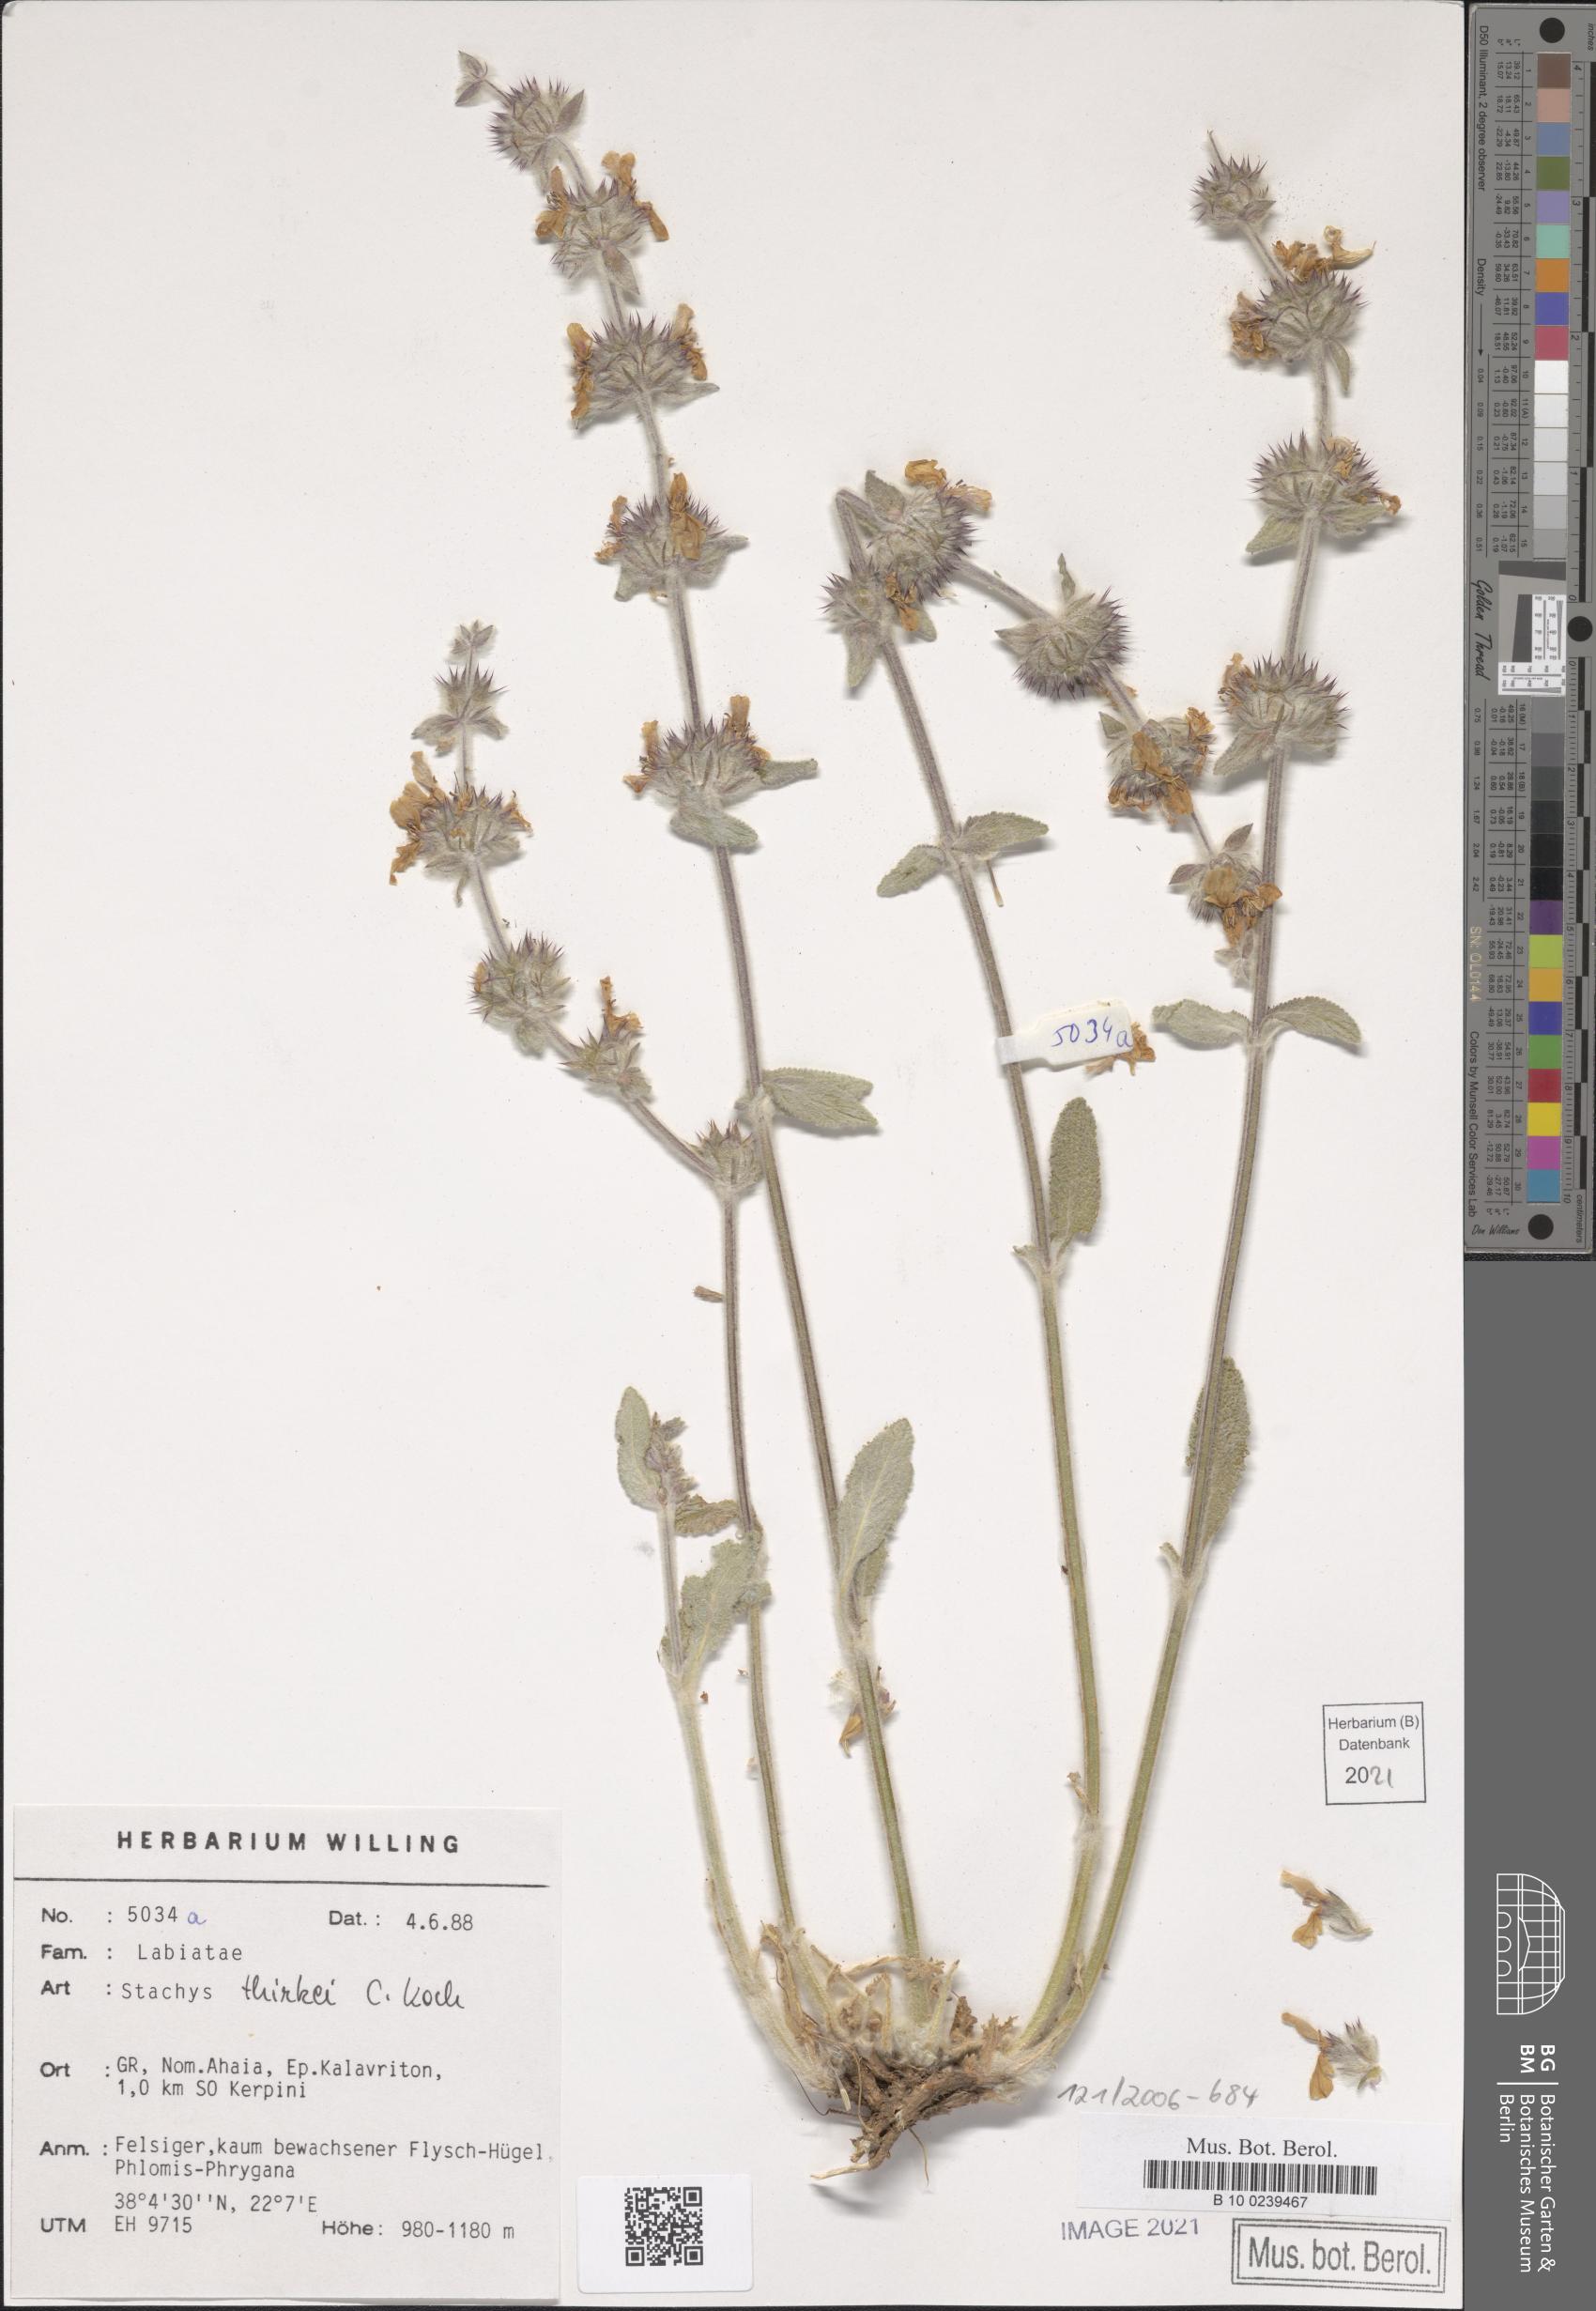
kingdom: Plantae
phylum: Tracheophyta
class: Magnoliopsida
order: Lamiales
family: Lamiaceae
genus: Stachys
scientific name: Stachys thirkei
